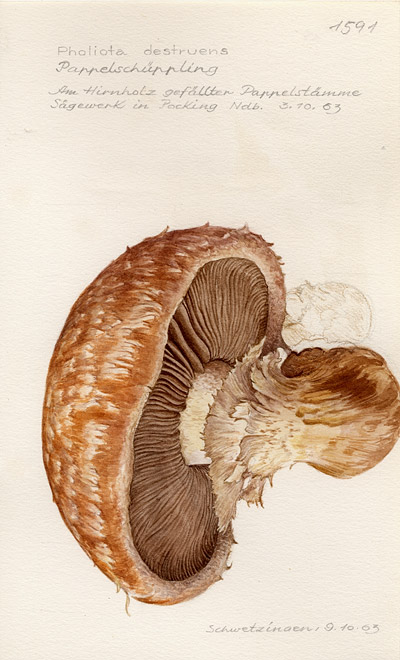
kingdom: Fungi
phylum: Basidiomycota
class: Agaricomycetes
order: Agaricales
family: Strophariaceae
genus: Pholiota
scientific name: Pholiota populnea
